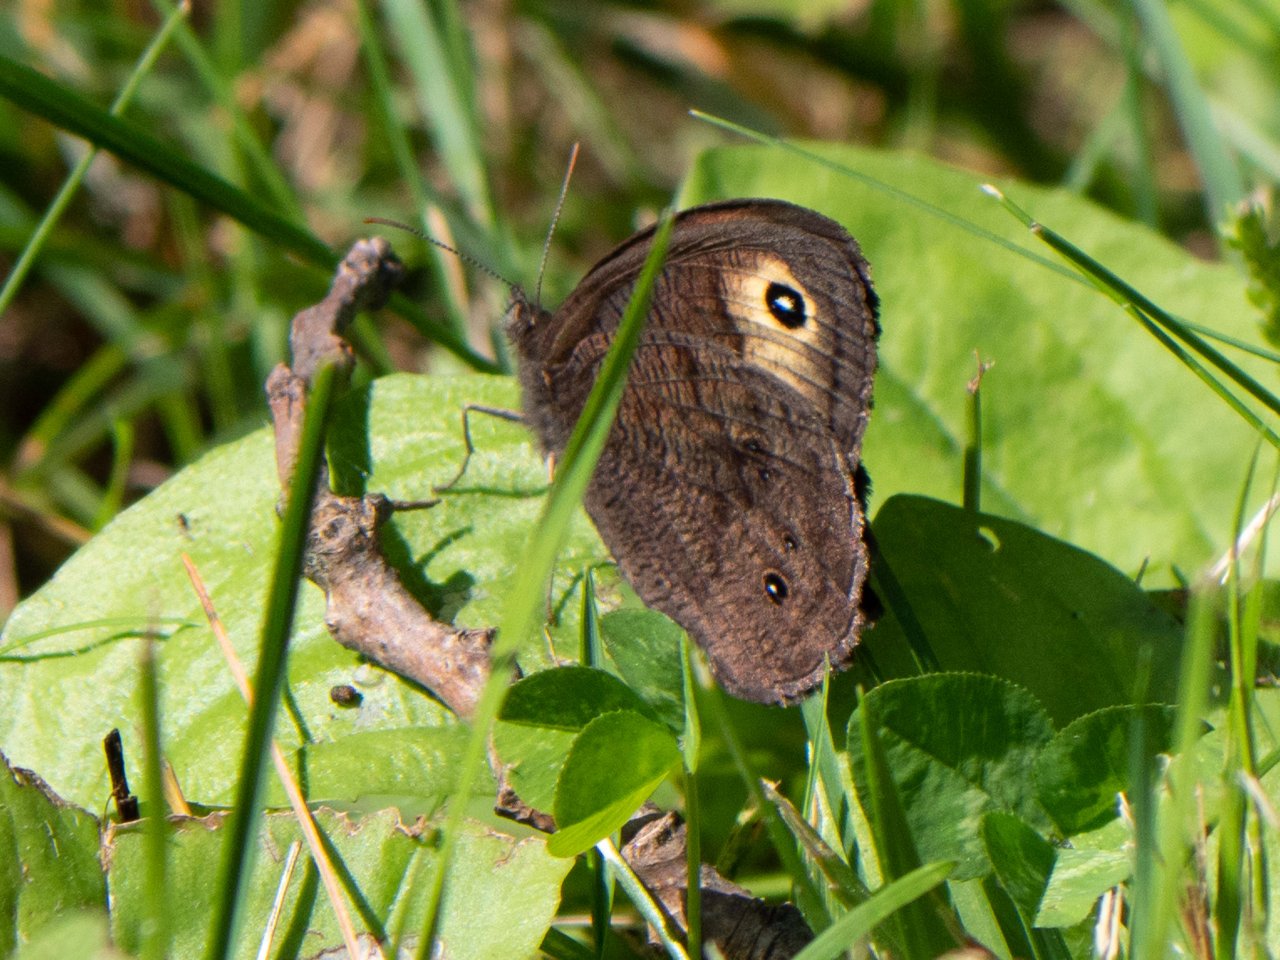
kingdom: Animalia
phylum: Arthropoda
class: Insecta
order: Lepidoptera
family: Nymphalidae
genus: Cercyonis
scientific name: Cercyonis pegala
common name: Common Wood-Nymph
